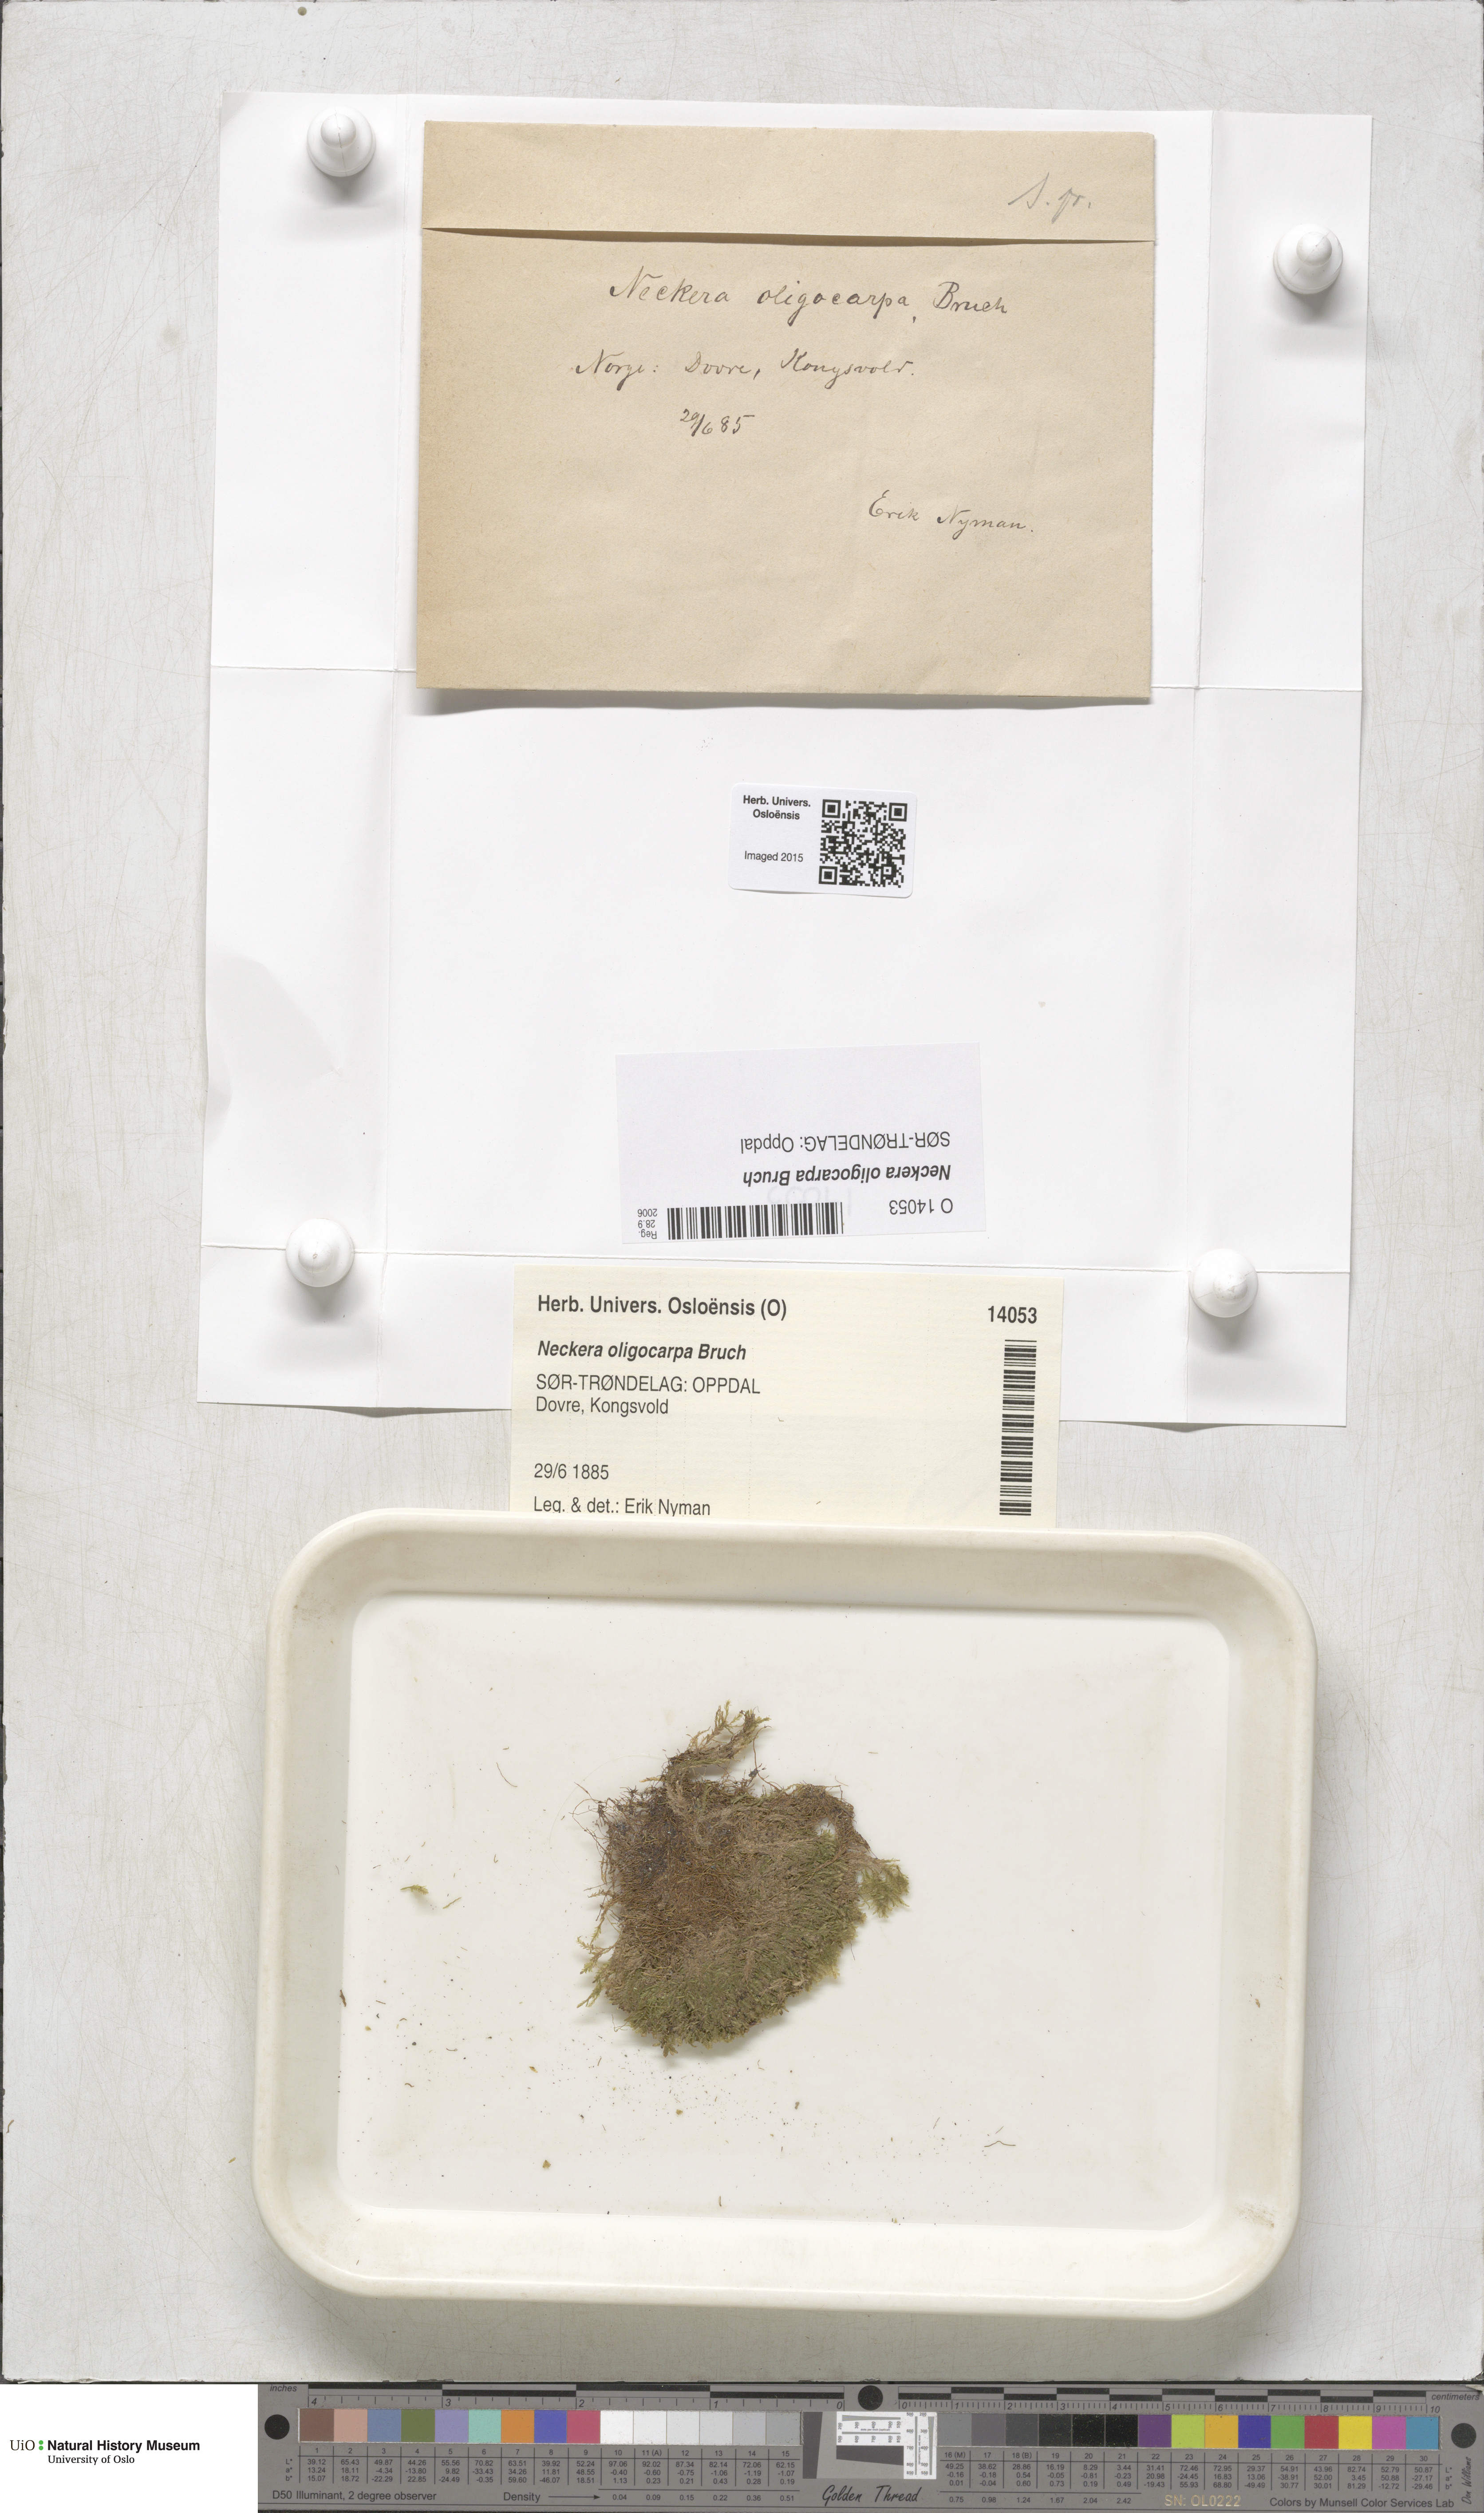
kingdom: Plantae
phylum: Bryophyta
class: Bryopsida
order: Hypnales
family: Neckeraceae
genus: Neckera
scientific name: Neckera oligocarpa
